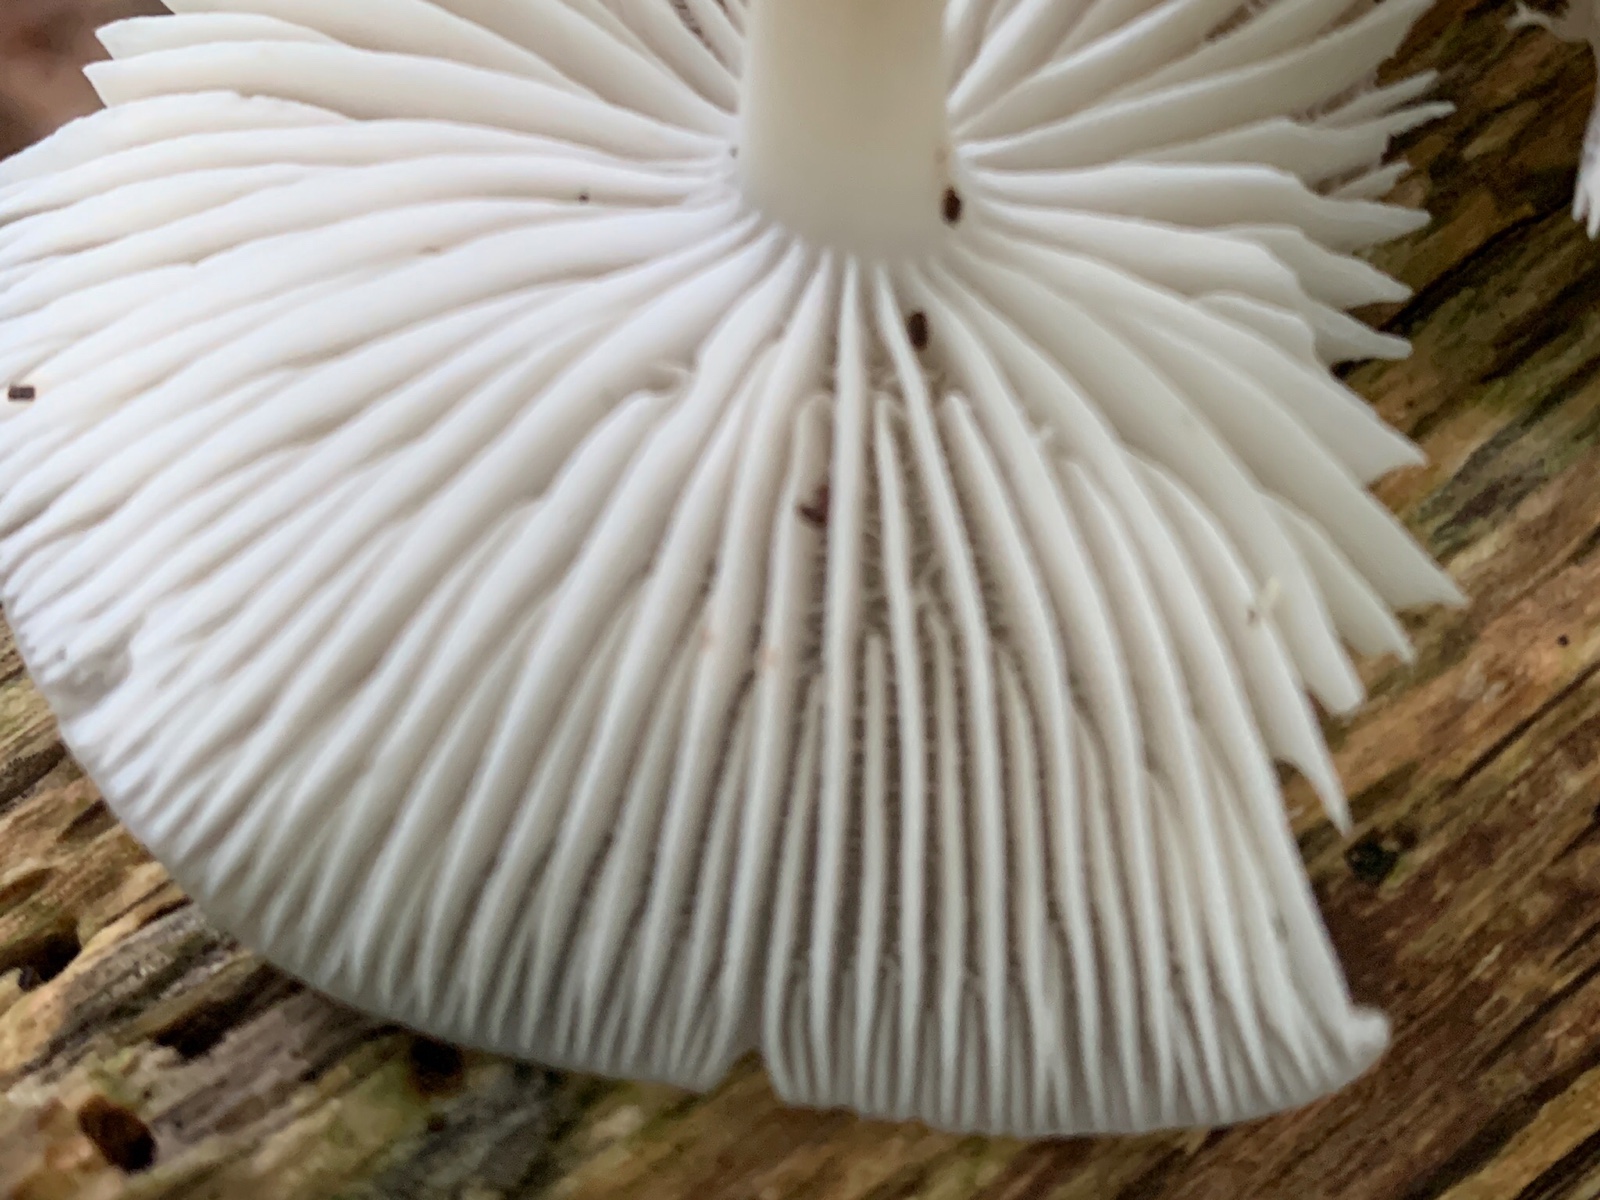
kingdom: Fungi
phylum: Basidiomycota
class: Agaricomycetes
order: Agaricales
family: Mycenaceae
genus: Mycena
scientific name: Mycena galericulata
